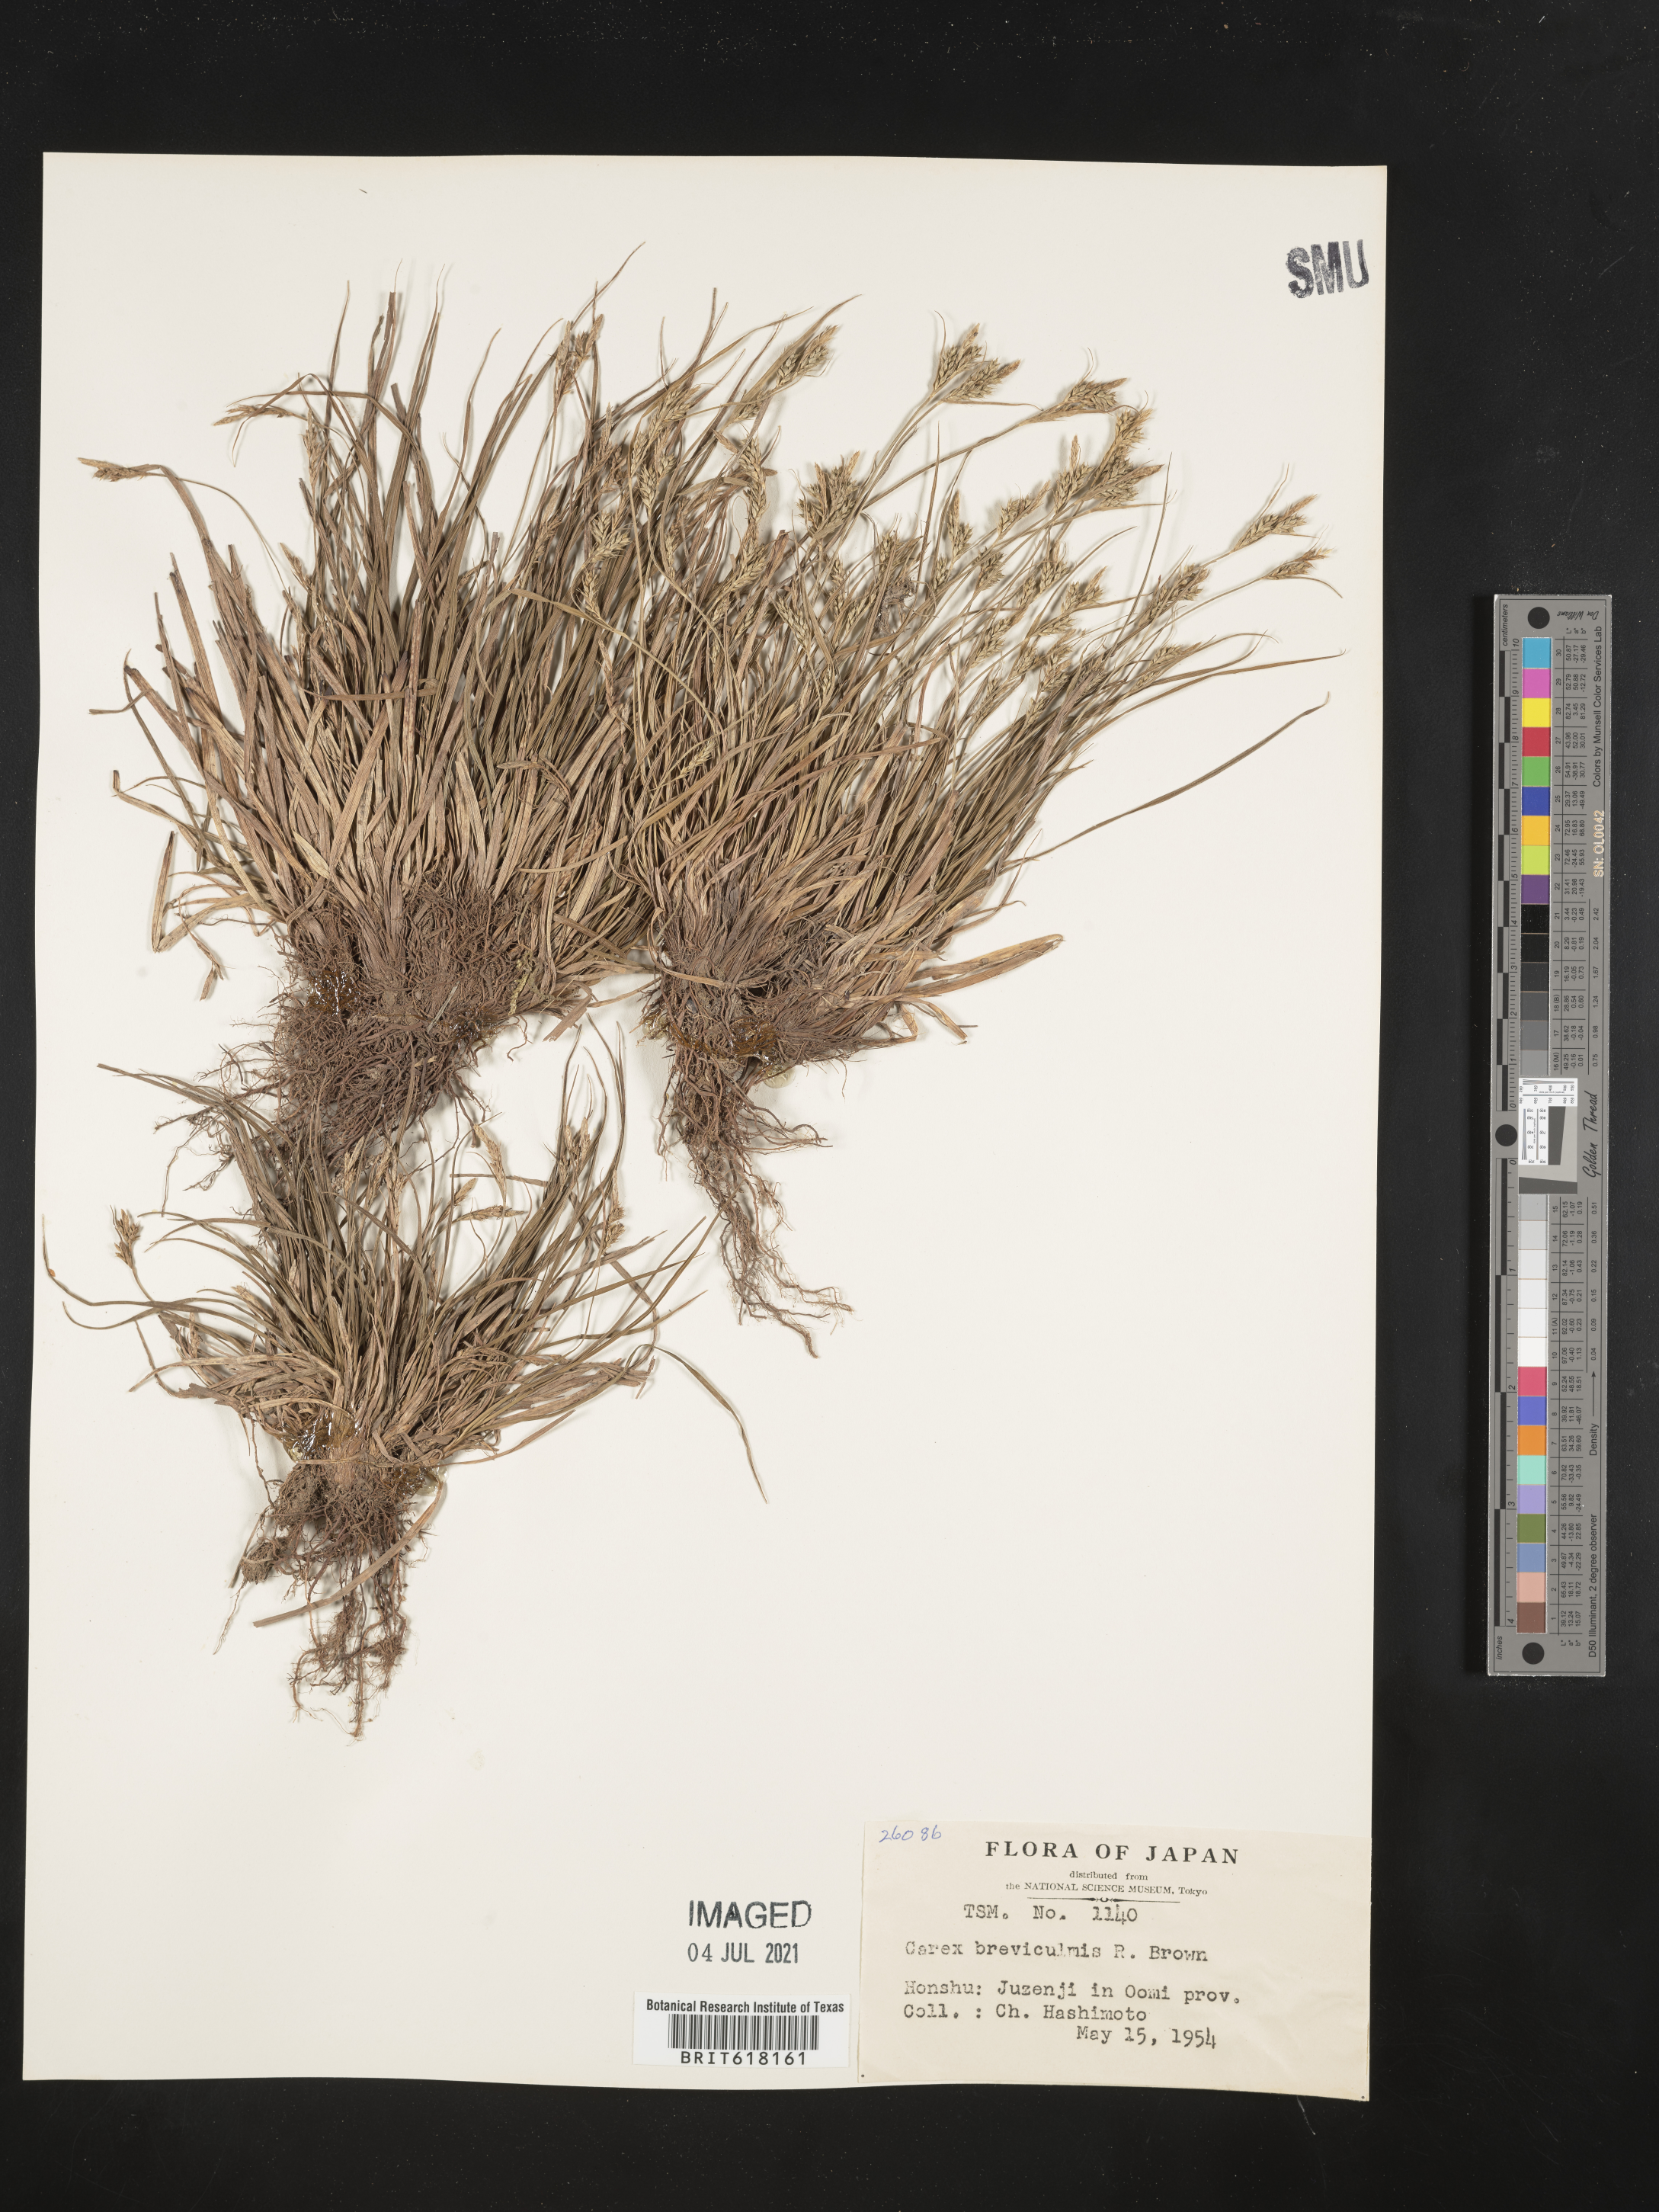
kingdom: Plantae
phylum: Tracheophyta
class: Liliopsida
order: Poales
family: Cyperaceae
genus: Carex
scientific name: Carex breviculmis
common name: Asian shortstem sedge
